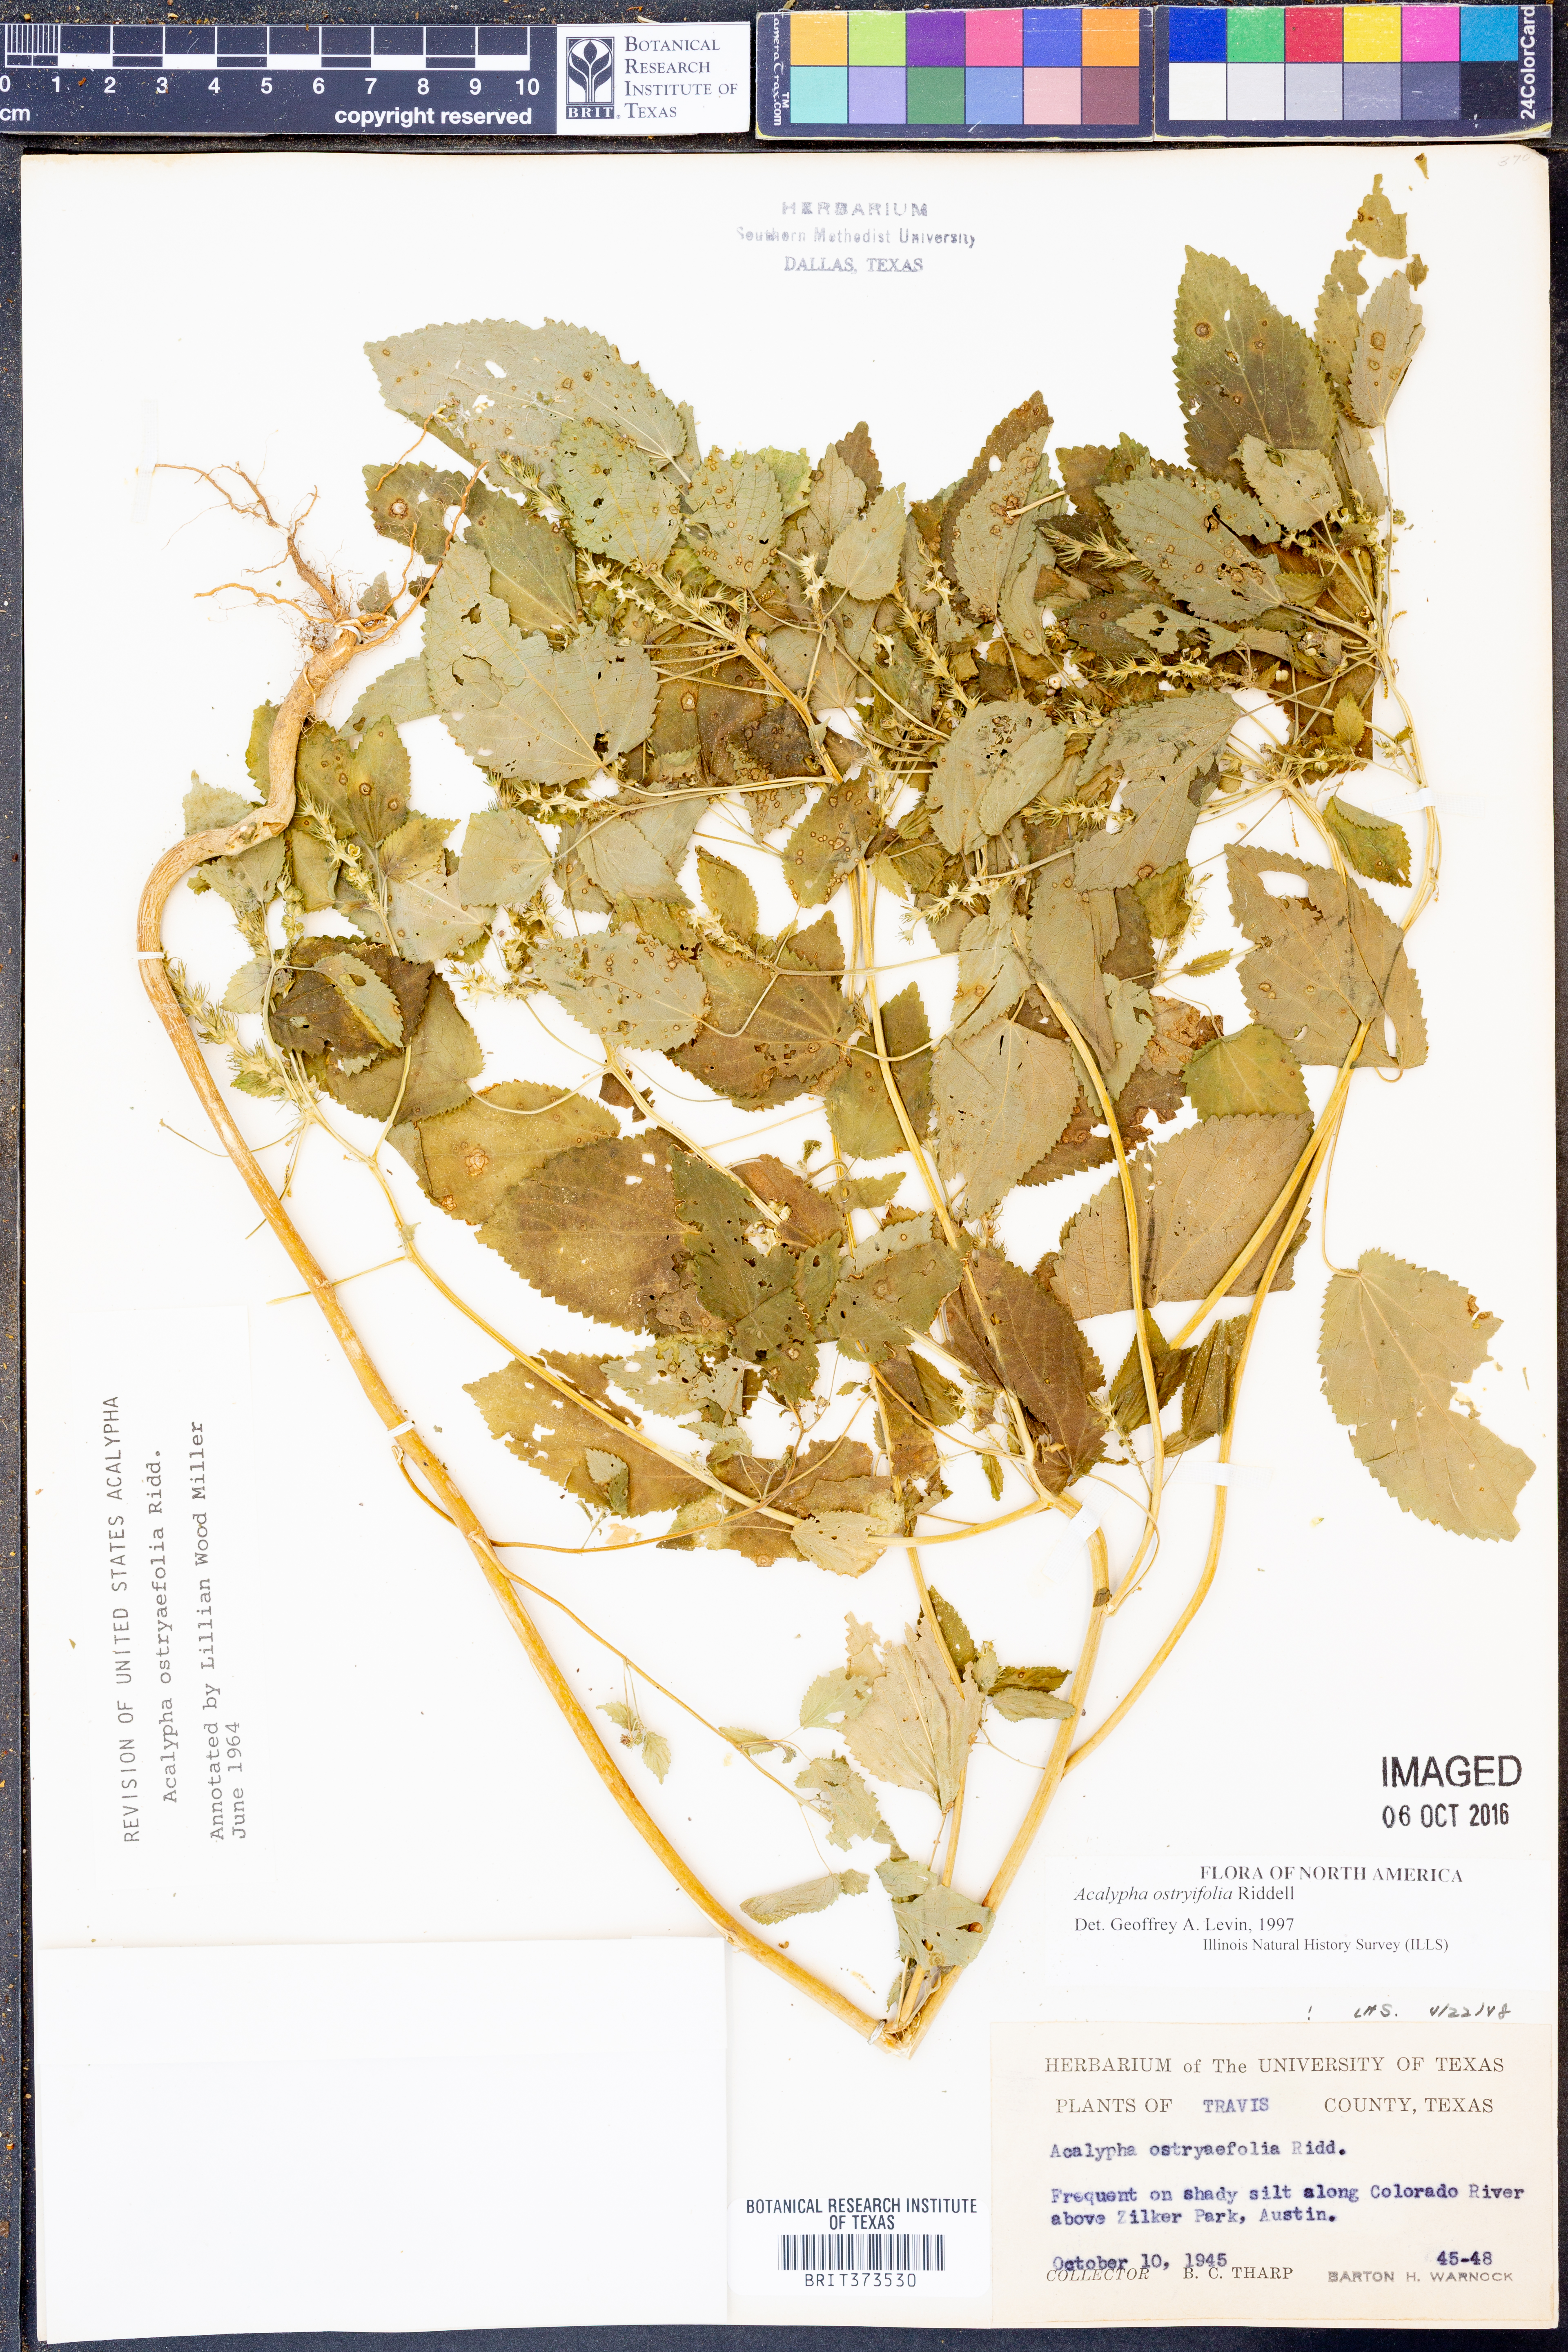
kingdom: Plantae
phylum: Tracheophyta
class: Magnoliopsida
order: Malpighiales
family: Euphorbiaceae
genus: Acalypha
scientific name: Acalypha persimilis
